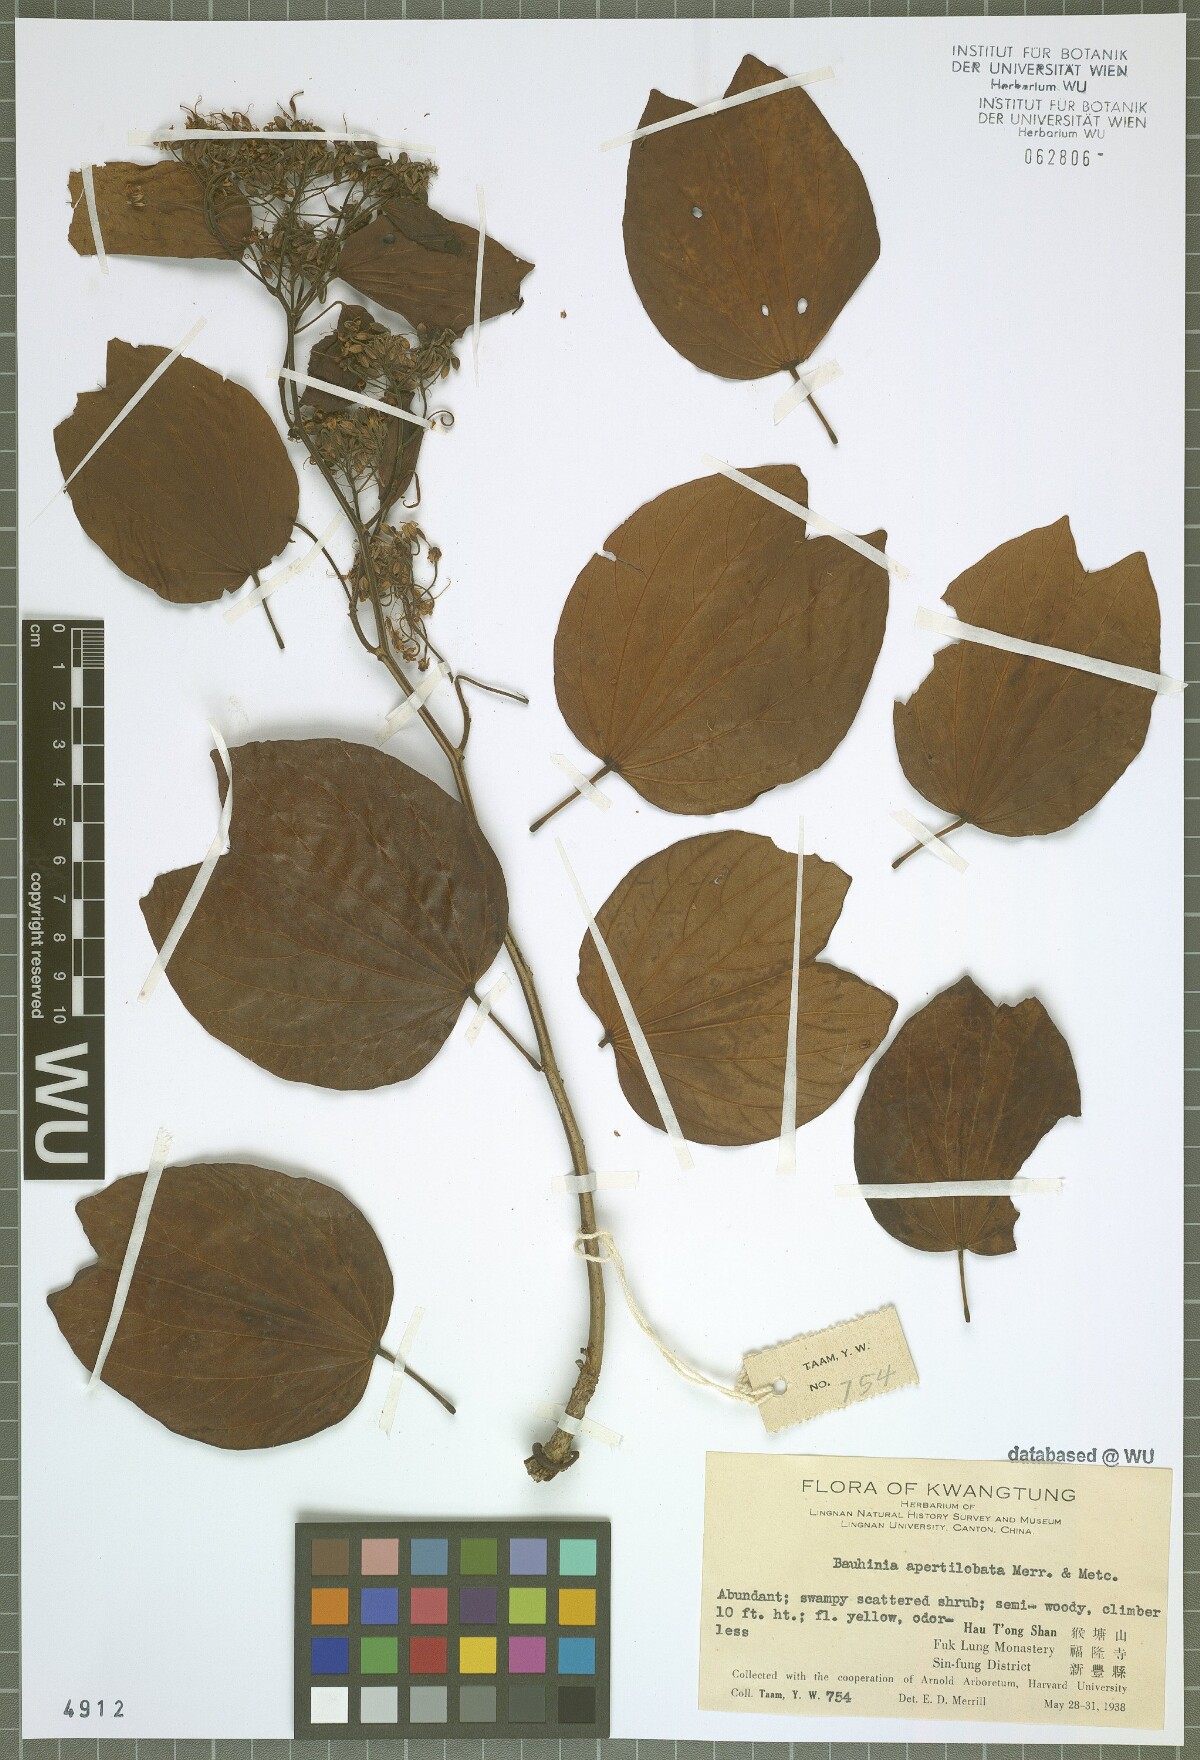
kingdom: Plantae
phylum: Tracheophyta
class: Magnoliopsida
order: Fabales
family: Fabaceae
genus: Phanera
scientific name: Phanera apertilobata
